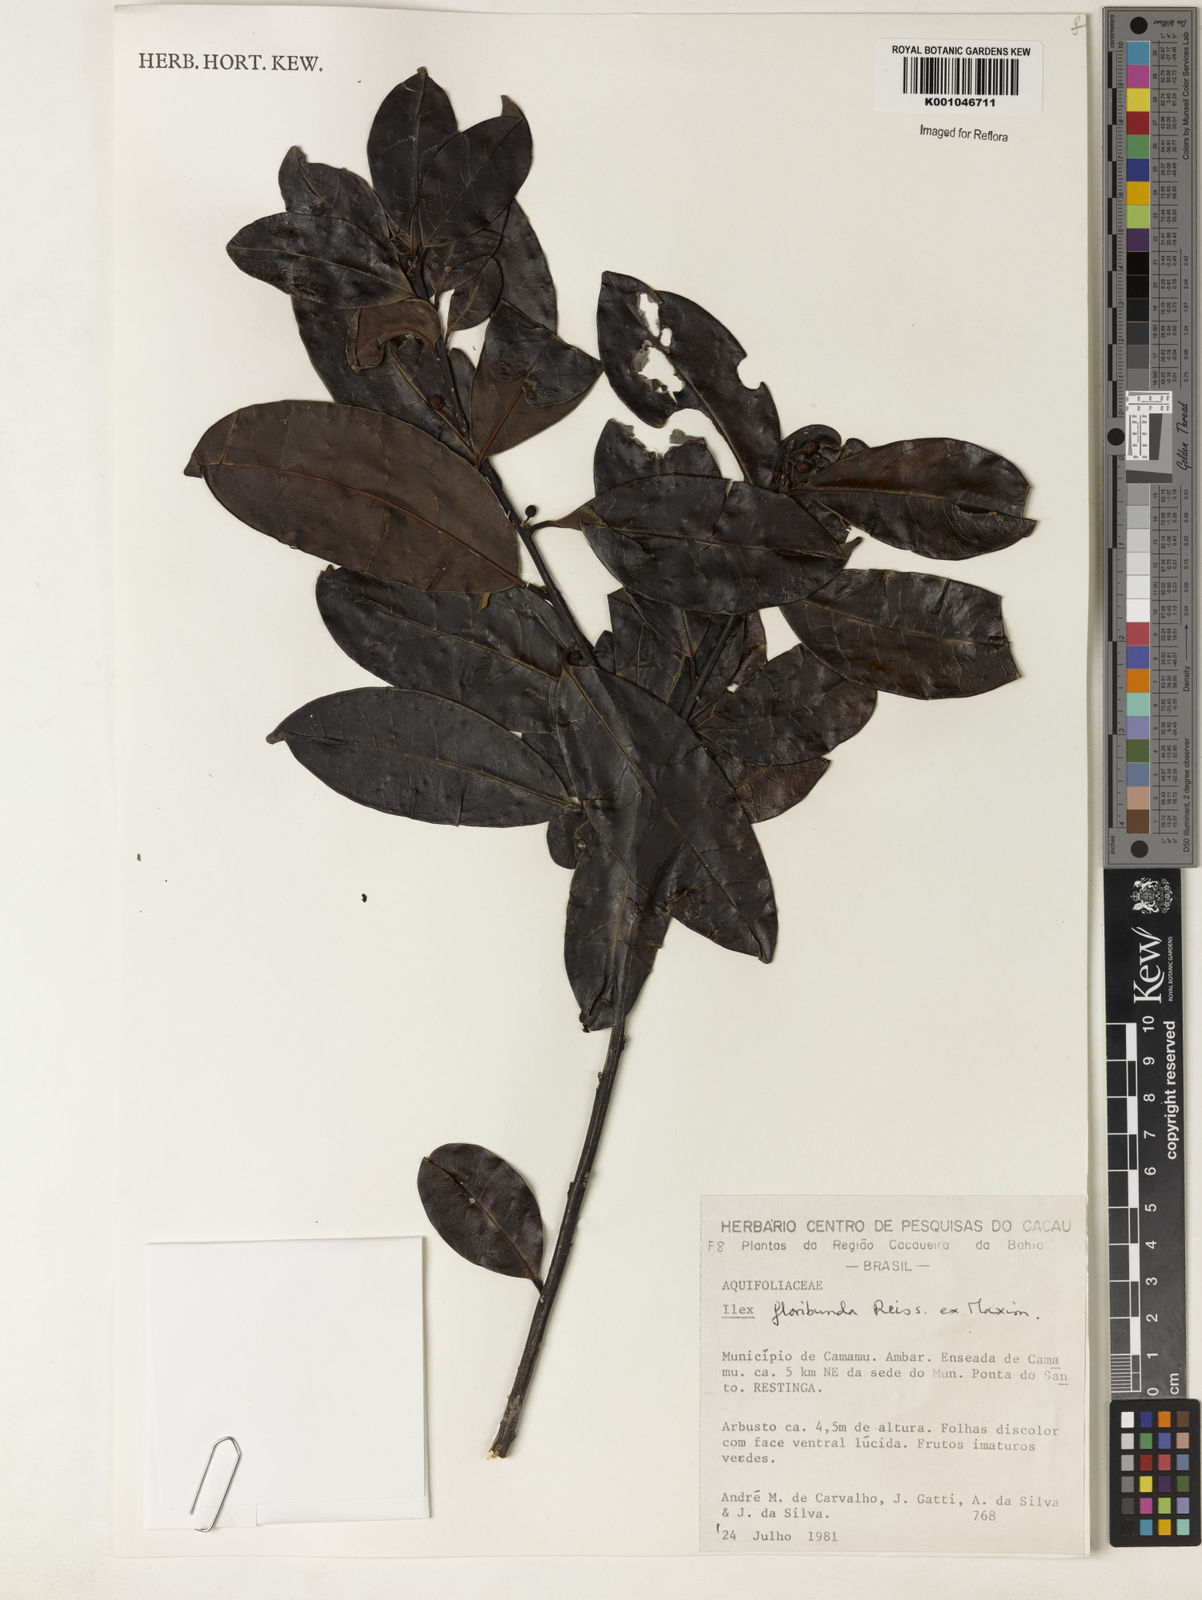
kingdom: Plantae
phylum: Tracheophyta
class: Magnoliopsida
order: Aquifoliales
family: Aquifoliaceae
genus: Ilex
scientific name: Ilex floribunda
